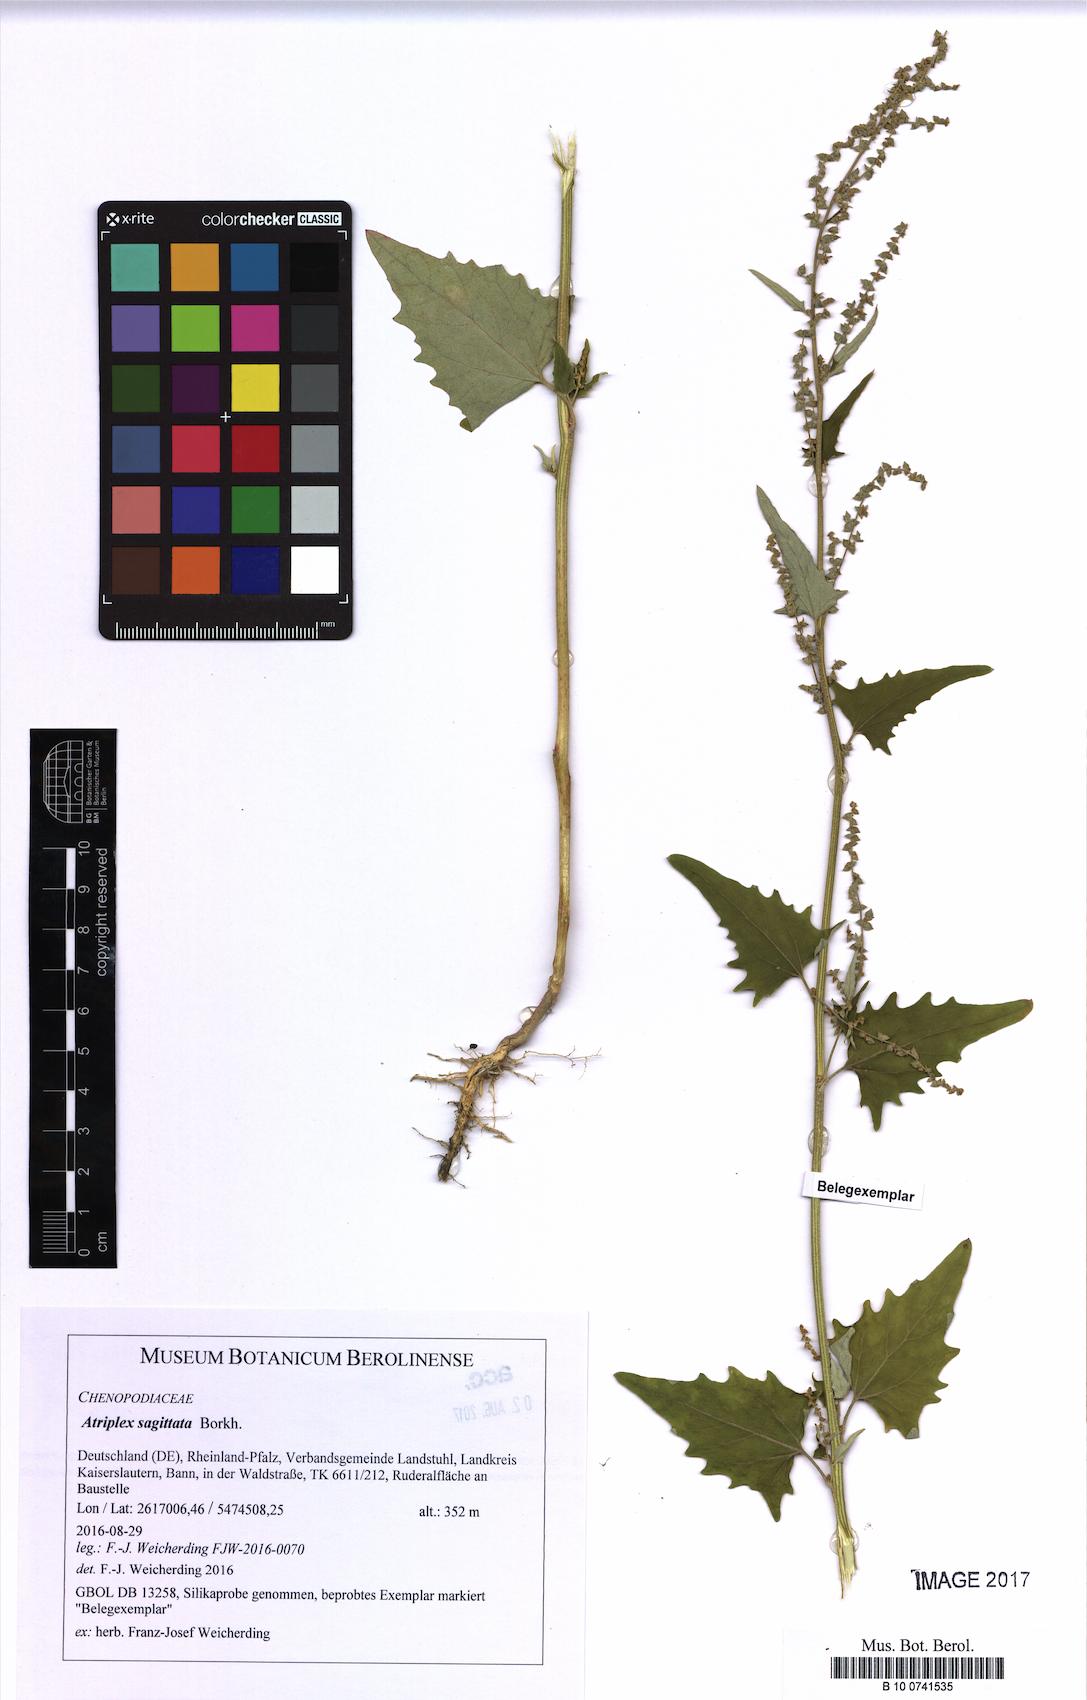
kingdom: Plantae
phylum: Tracheophyta
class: Magnoliopsida
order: Caryophyllales
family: Amaranthaceae
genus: Atriplex
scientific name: Atriplex sagittata
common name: Purple orache
